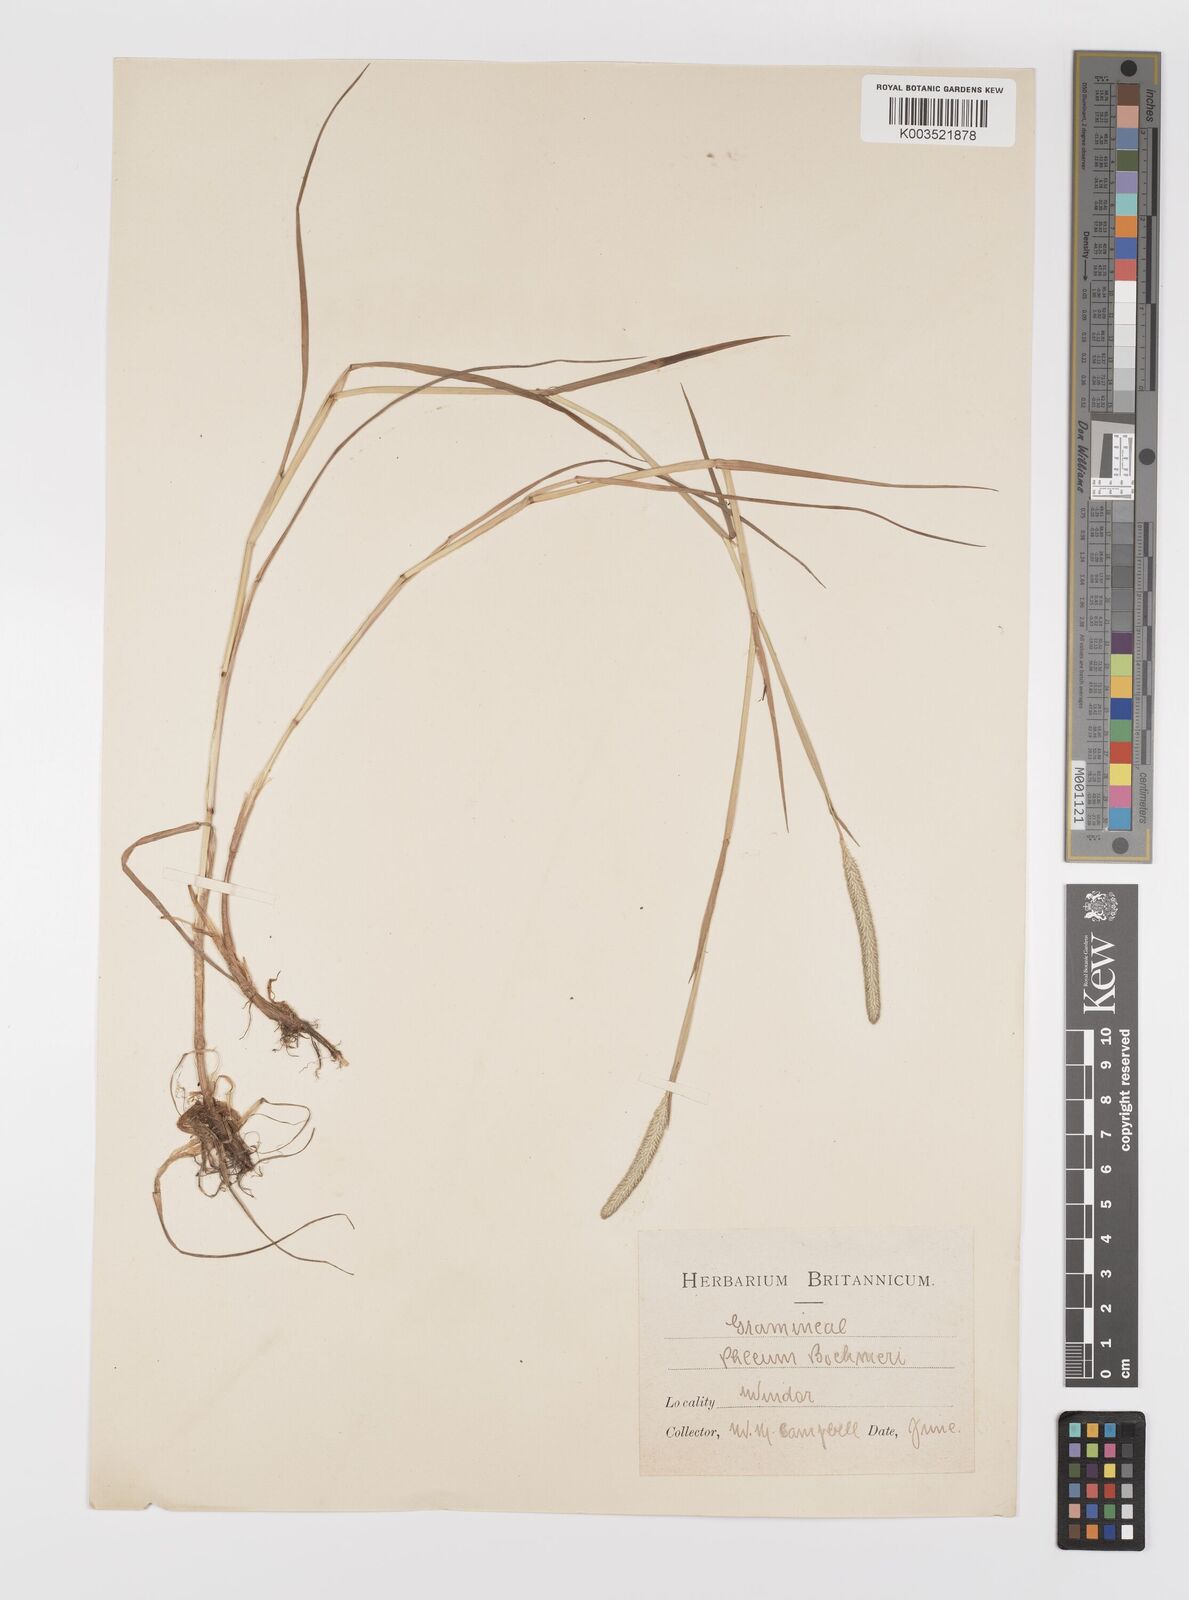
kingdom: Plantae
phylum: Tracheophyta
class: Liliopsida
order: Poales
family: Poaceae
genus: Phleum
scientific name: Phleum bertolonii
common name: Smaller cat's-tail
